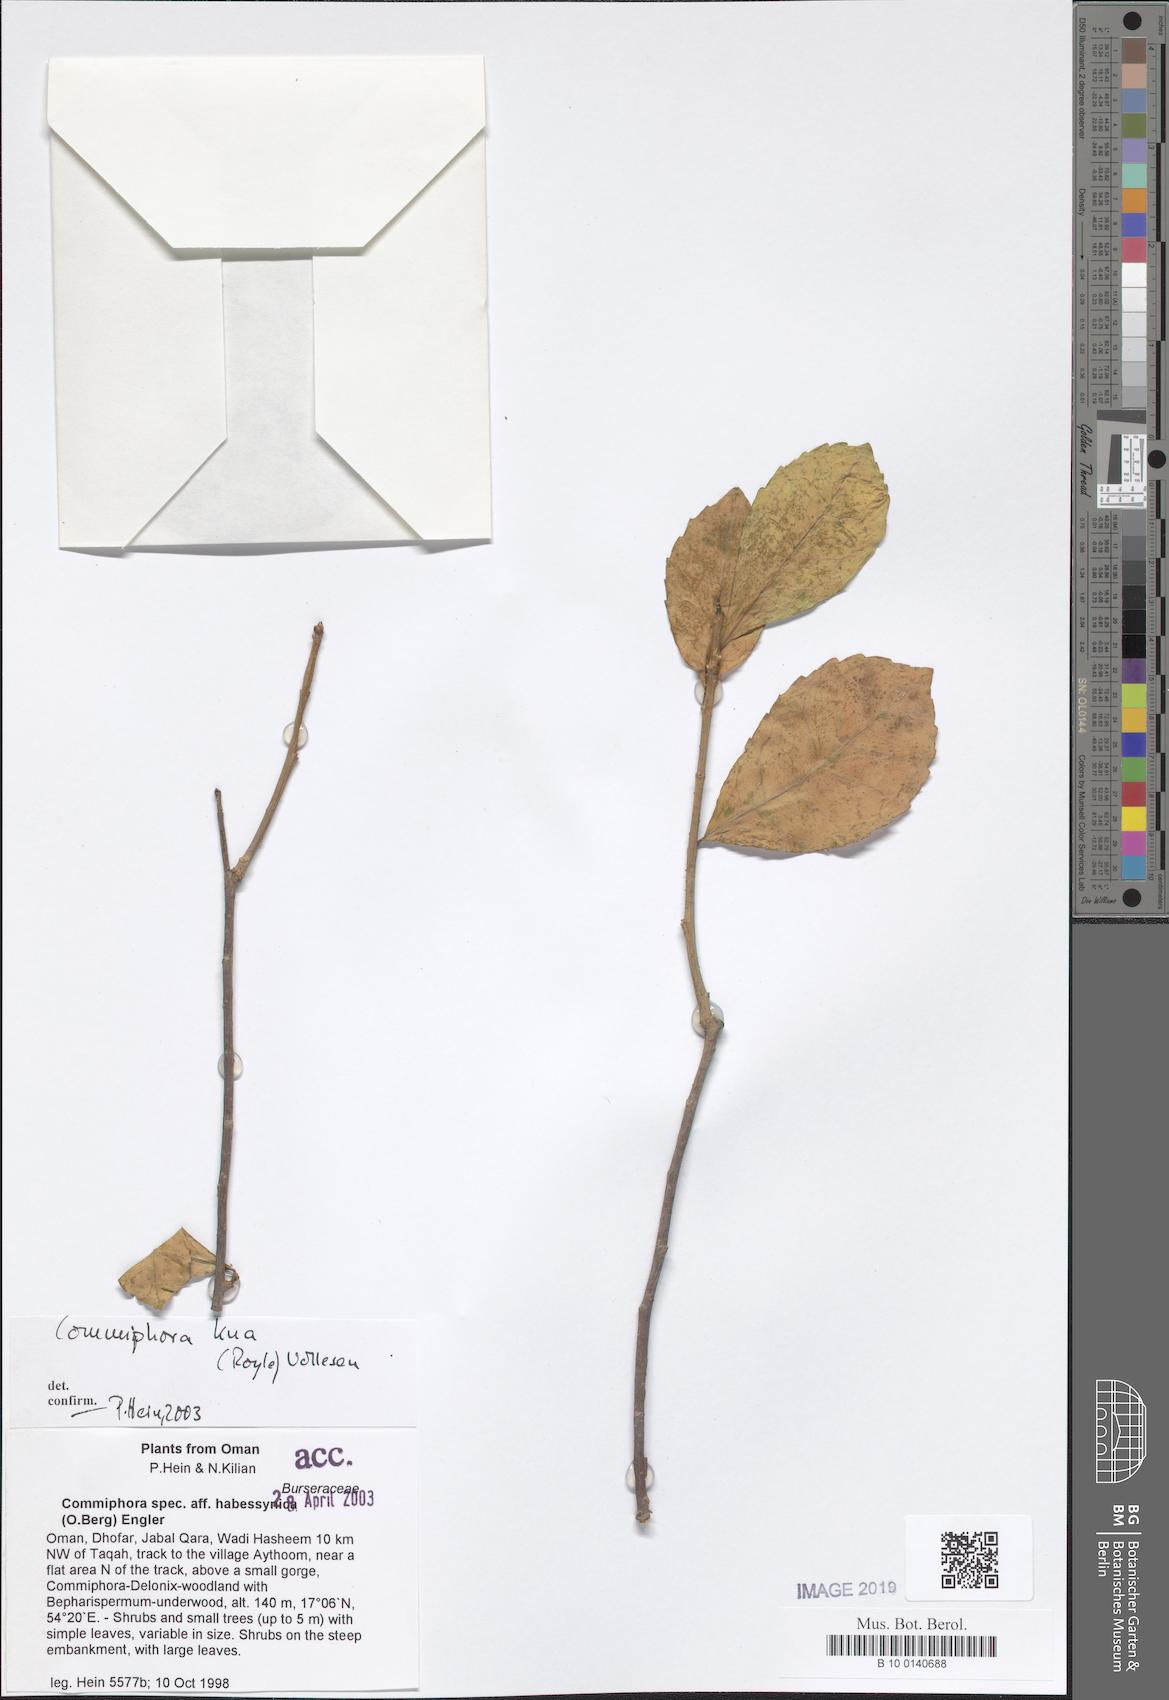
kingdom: Plantae
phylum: Tracheophyta
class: Magnoliopsida
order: Sapindales
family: Burseraceae
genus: Commiphora
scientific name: Commiphora kua
